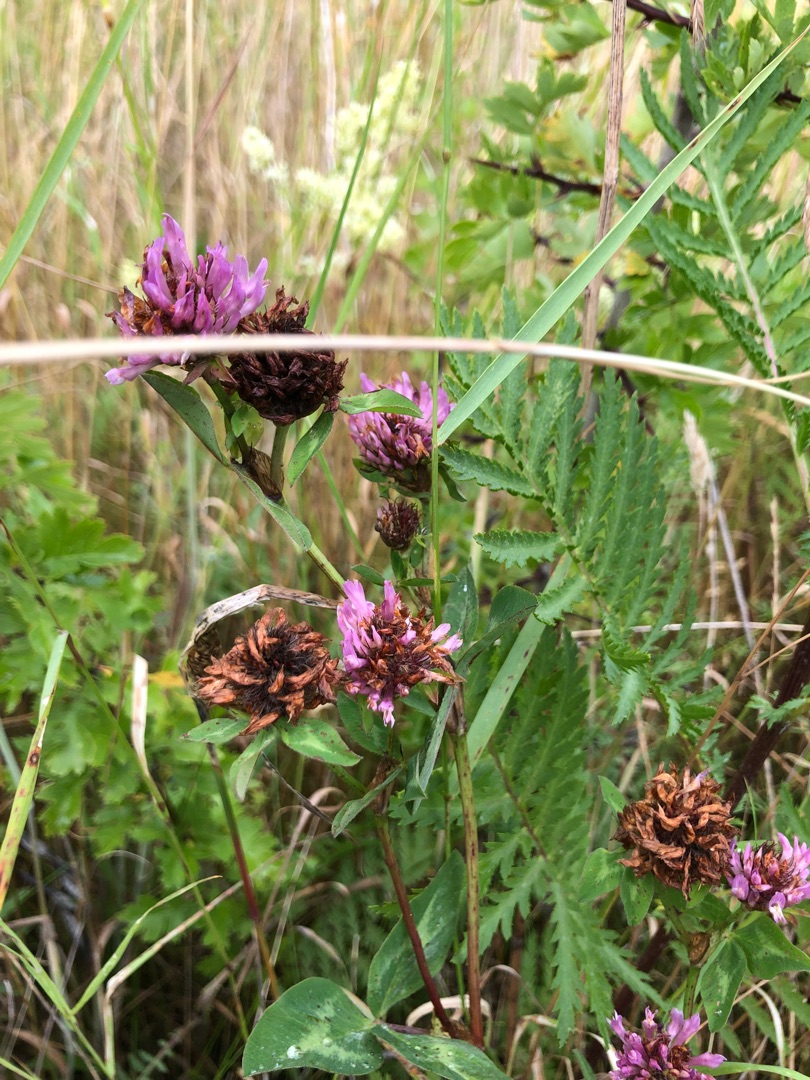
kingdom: Plantae
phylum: Tracheophyta
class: Magnoliopsida
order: Fabales
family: Fabaceae
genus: Trifolium
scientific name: Trifolium pratense
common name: Rød-kløver
